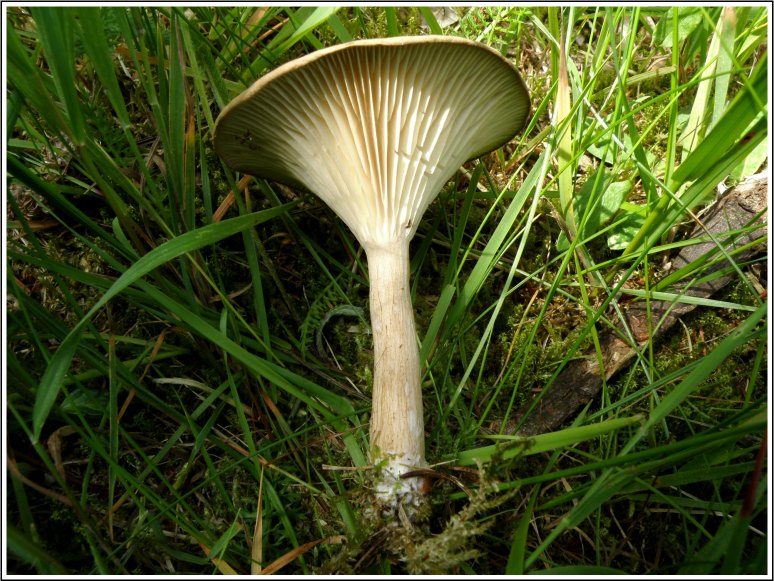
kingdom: Fungi
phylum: Basidiomycota
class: Agaricomycetes
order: Agaricales
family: Tricholomataceae
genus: Infundibulicybe
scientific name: Infundibulicybe squamulosa
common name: småskællet tragthat
